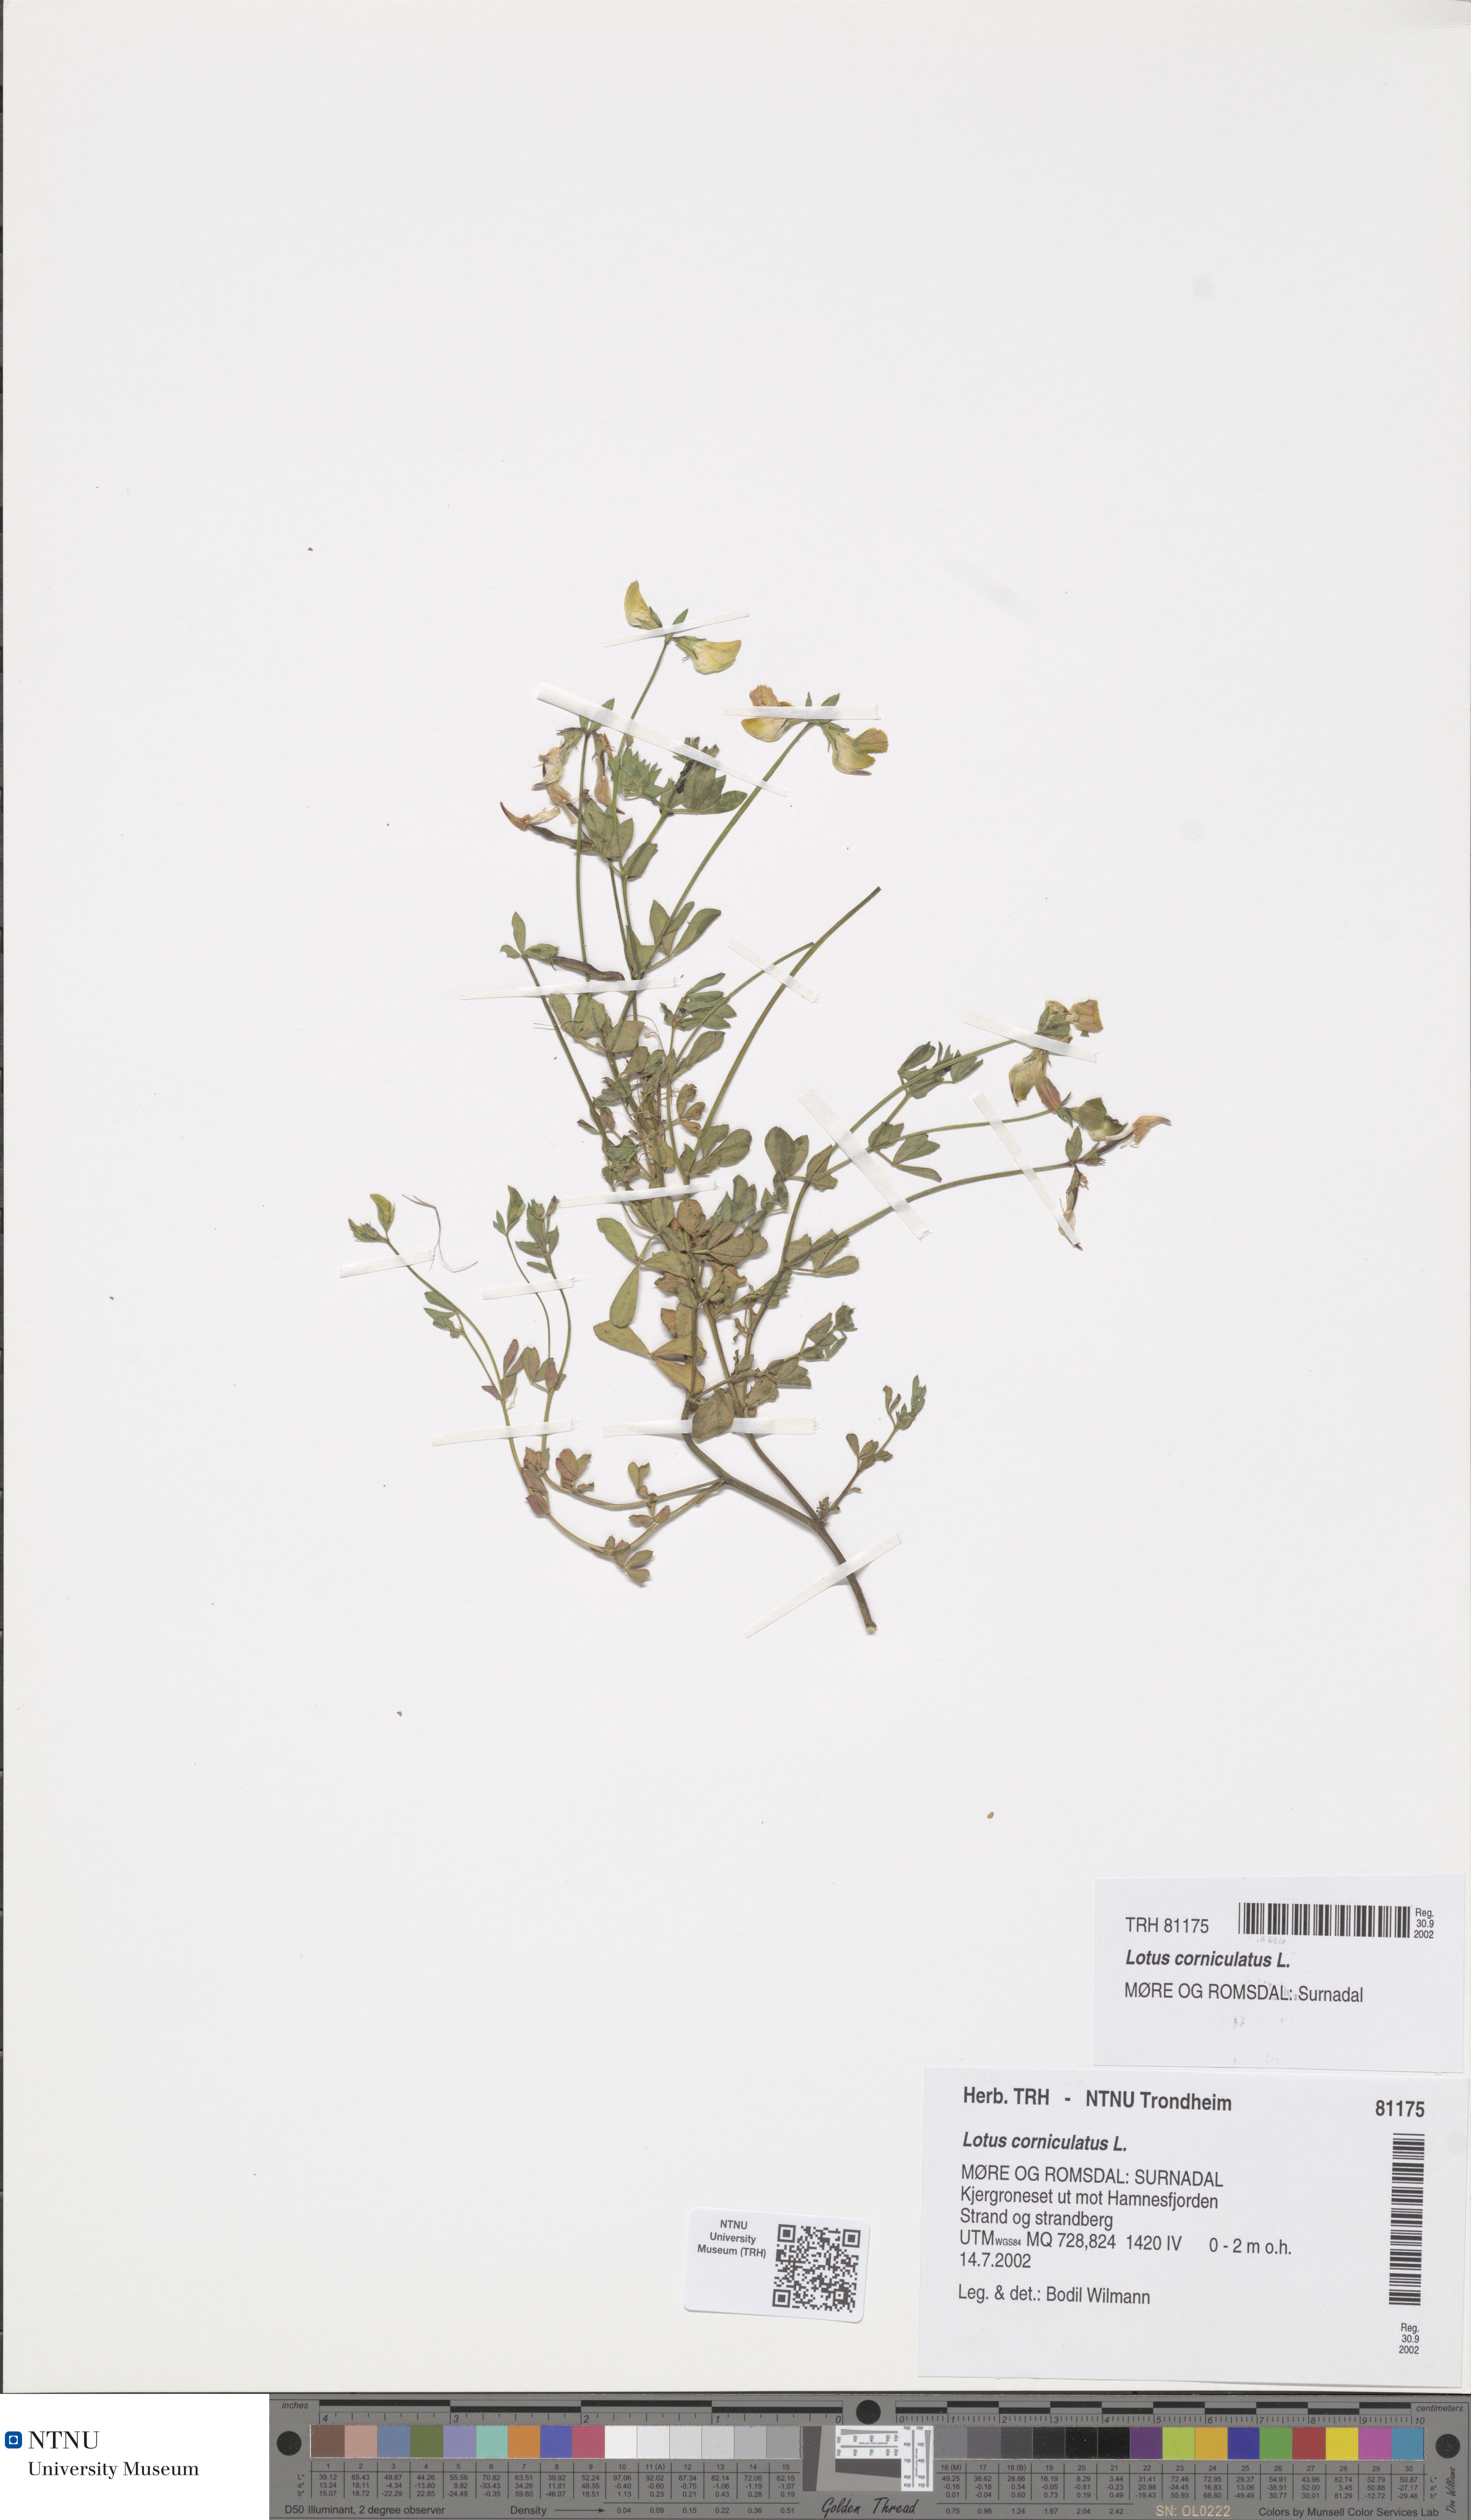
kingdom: Plantae
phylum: Tracheophyta
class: Magnoliopsida
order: Fabales
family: Fabaceae
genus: Lotus
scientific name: Lotus corniculatus
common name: Common bird's-foot-trefoil
